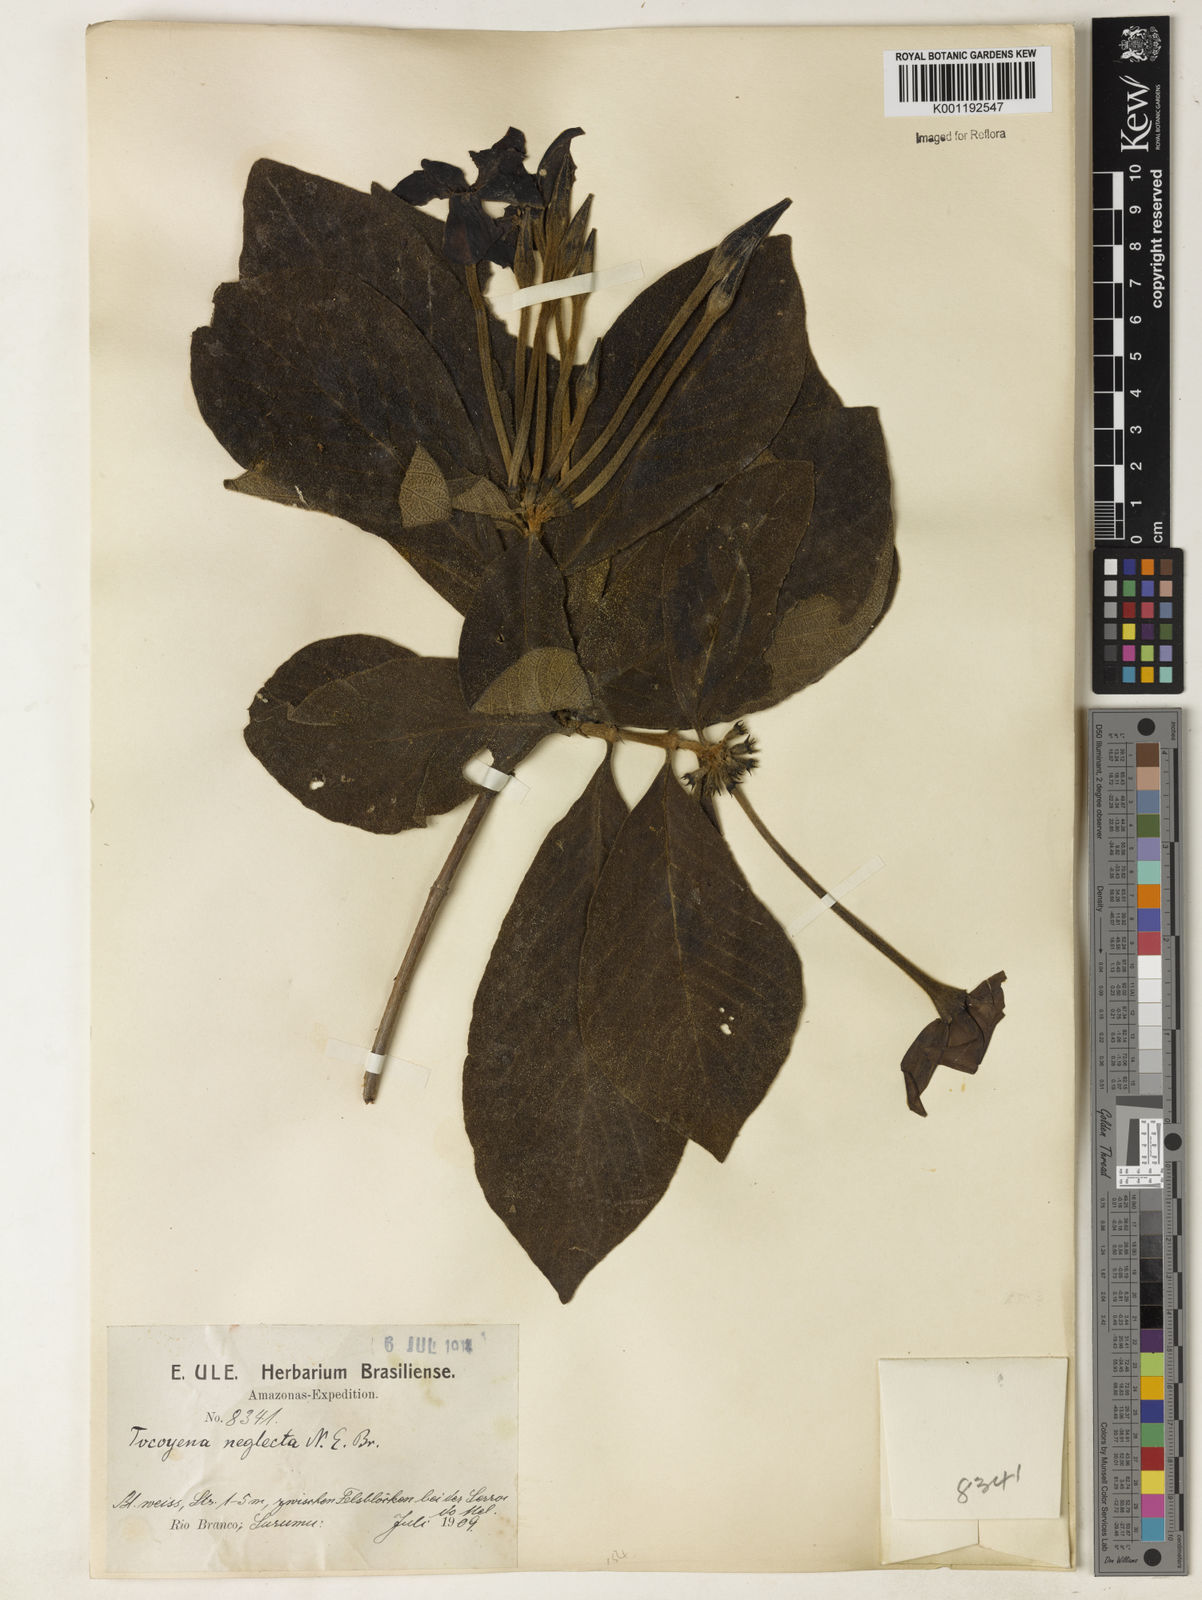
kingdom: Plantae
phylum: Tracheophyta
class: Magnoliopsida
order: Gentianales
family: Rubiaceae
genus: Tocoyena
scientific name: Tocoyena neglecta
